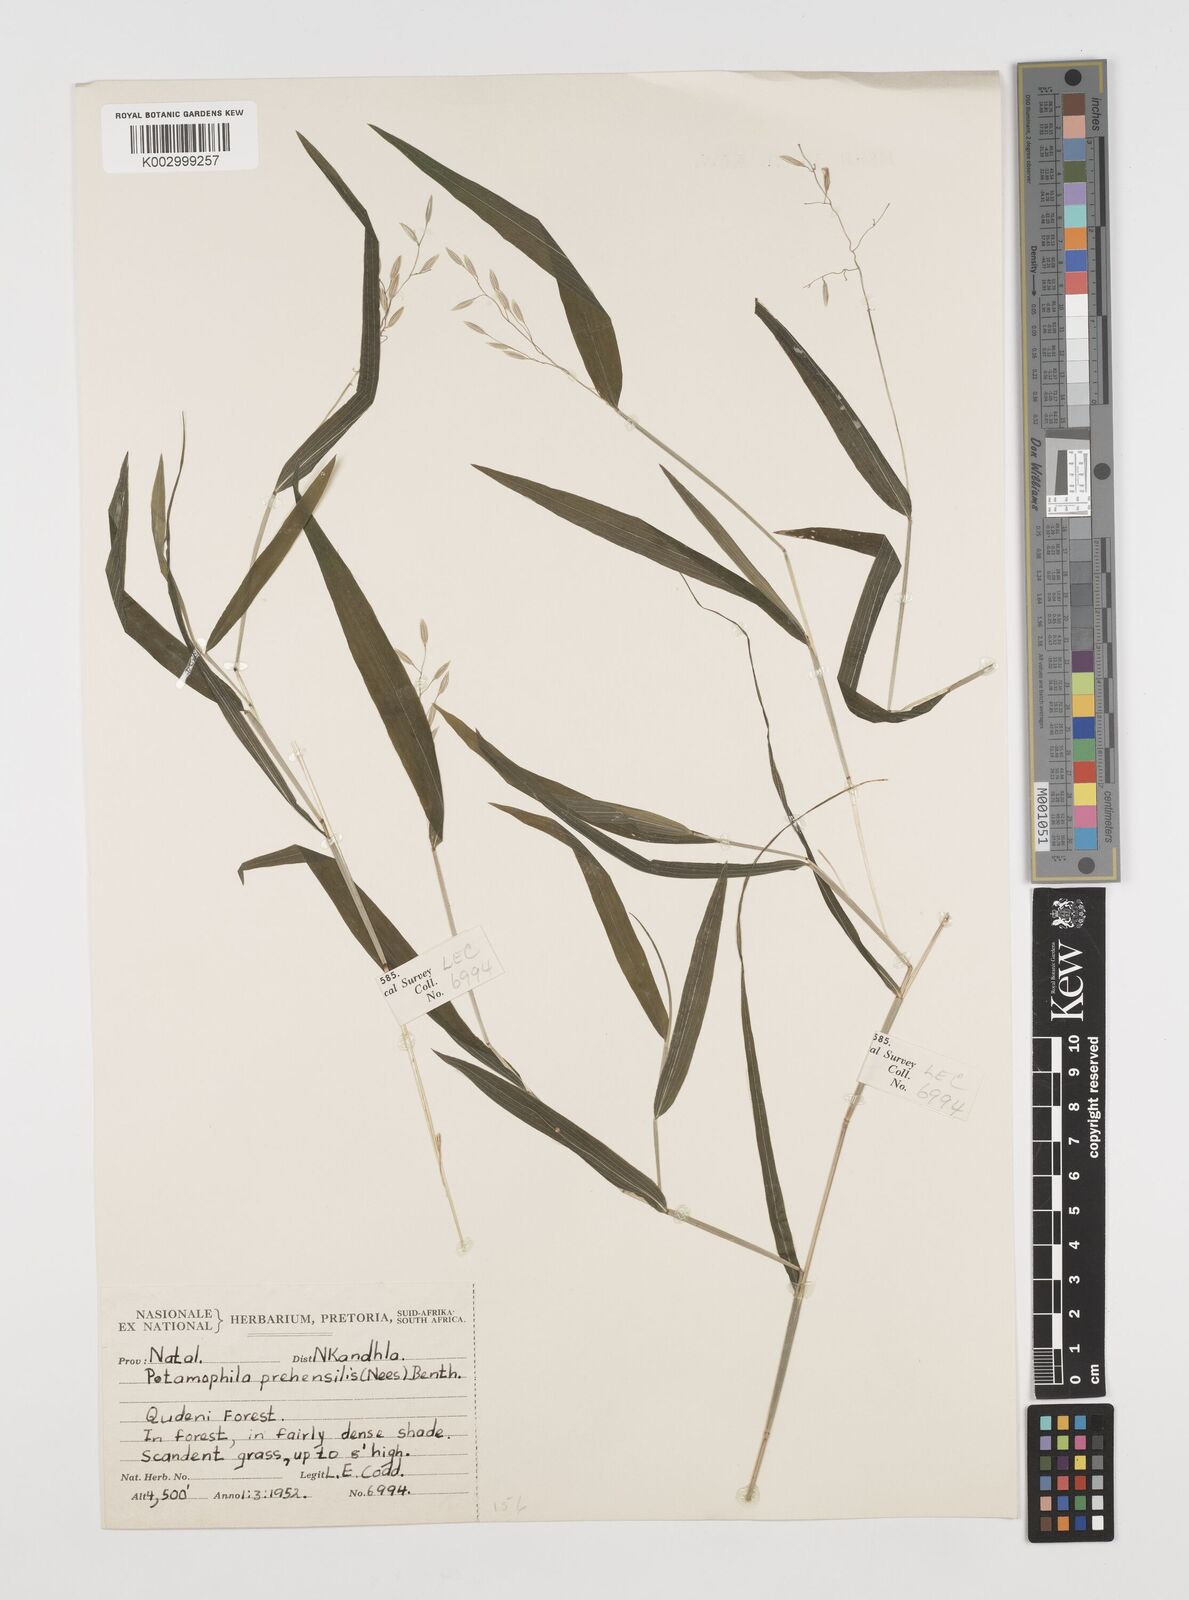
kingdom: Plantae
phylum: Tracheophyta
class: Liliopsida
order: Poales
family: Poaceae
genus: Prosphytochloa
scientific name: Prosphytochloa prehensilis
